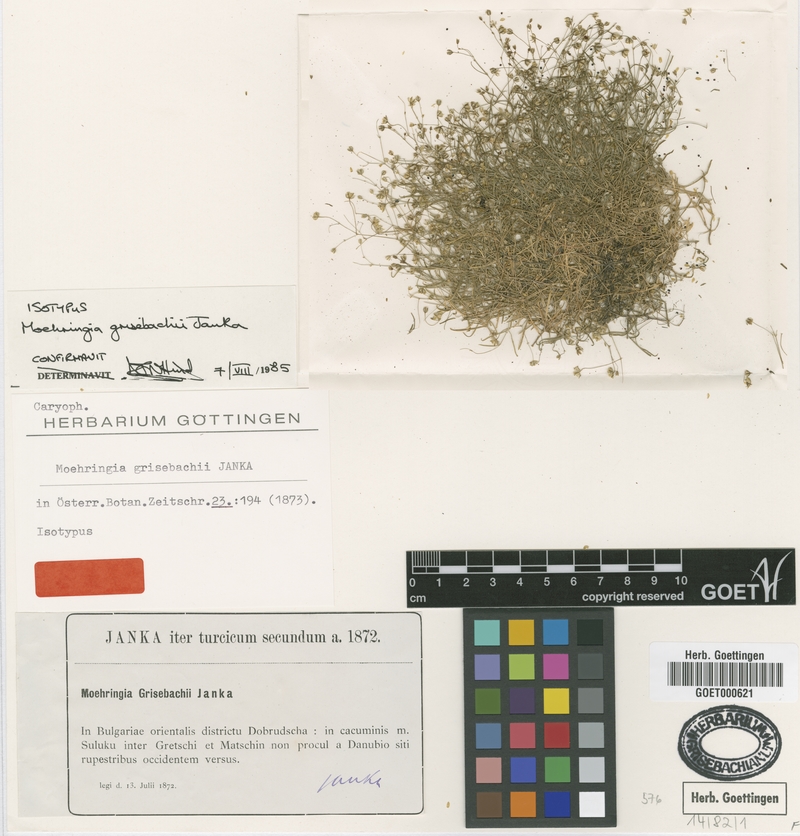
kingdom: Plantae
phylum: Tracheophyta
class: Magnoliopsida
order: Caryophyllales
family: Caryophyllaceae
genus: Moehringia
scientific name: Moehringia grisebachii
